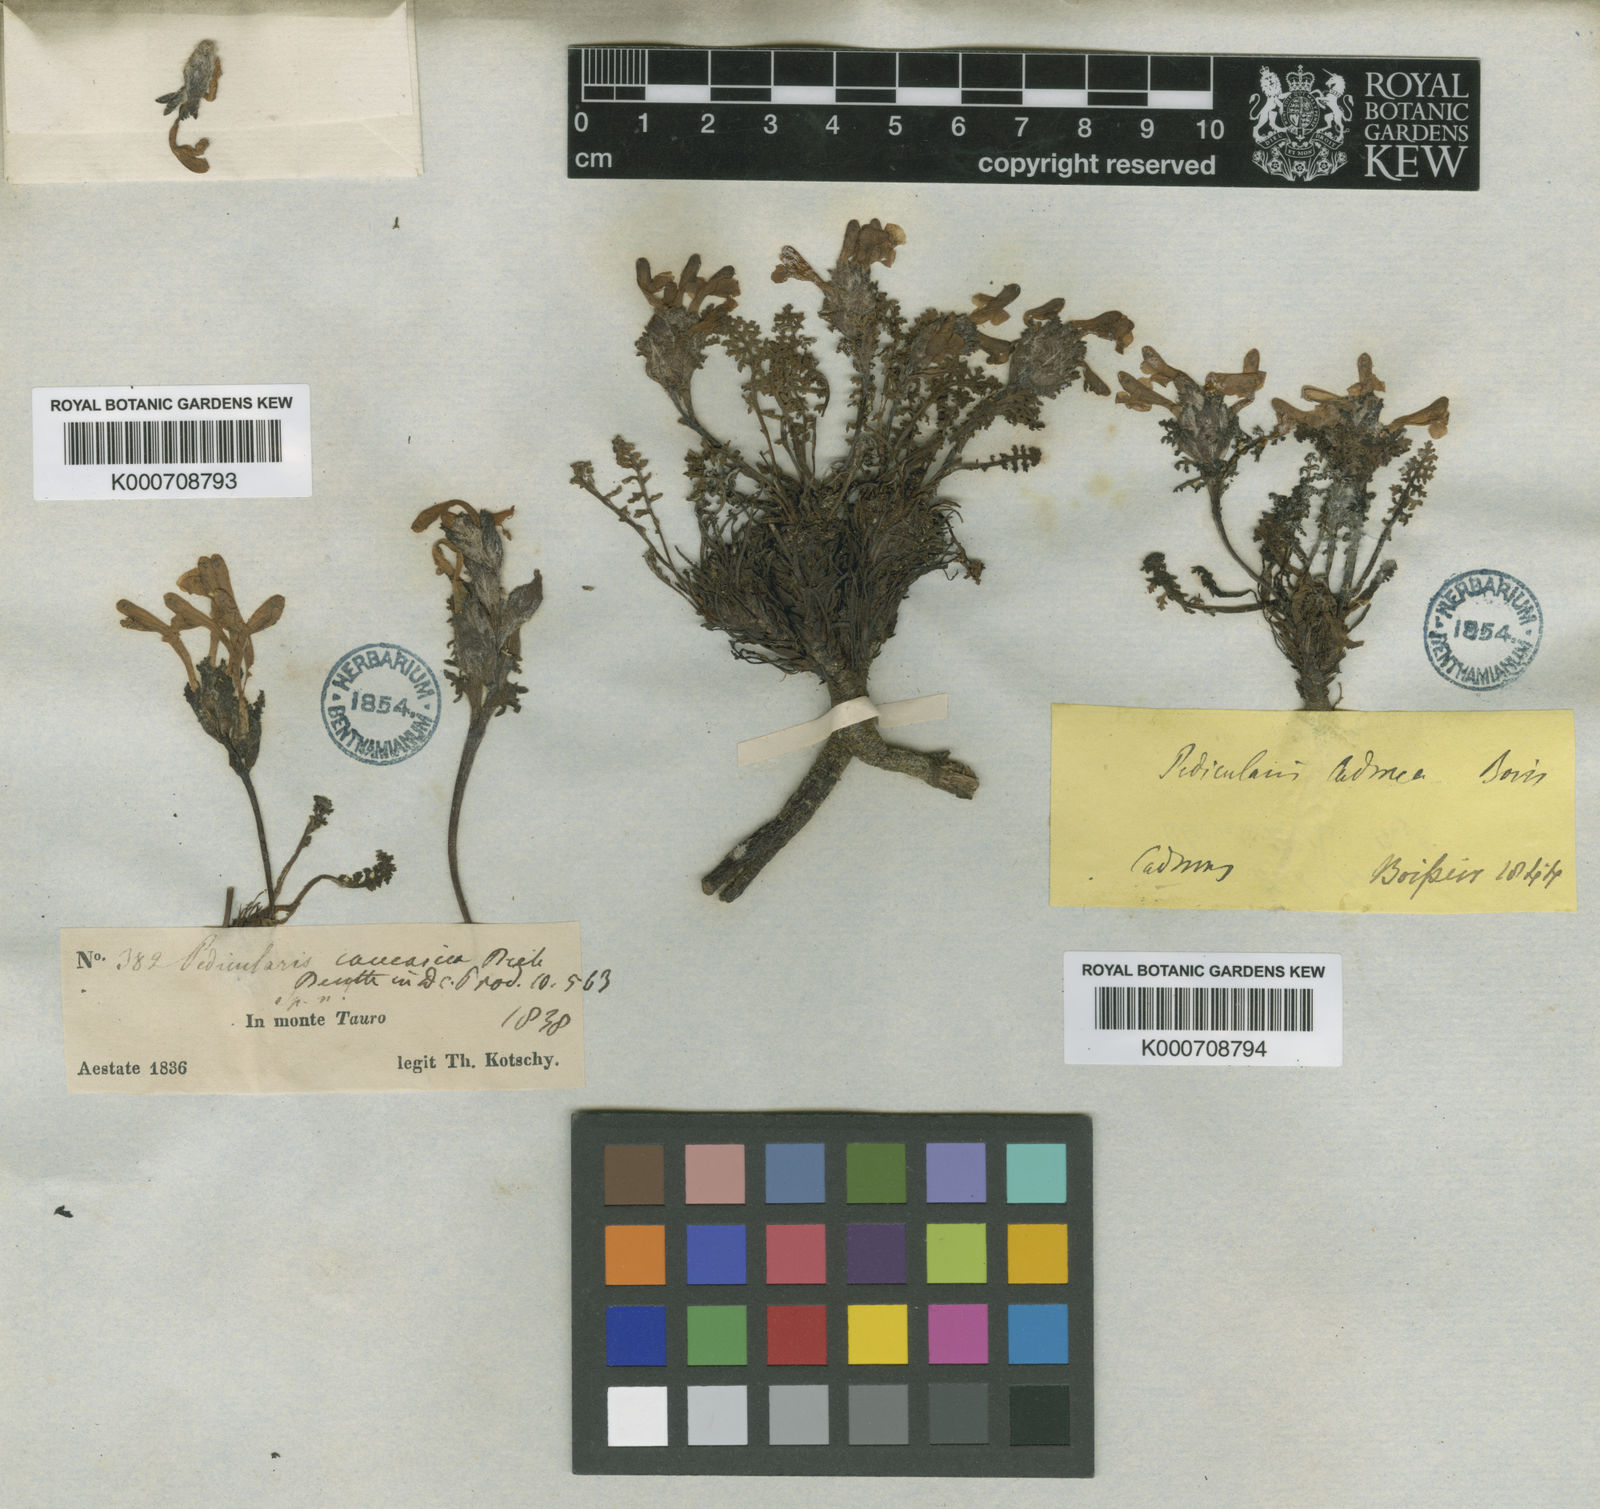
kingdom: Plantae
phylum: Tracheophyta
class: Magnoliopsida
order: Lamiales
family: Orobanchaceae
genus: Pedicularis
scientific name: Pedicularis cadmea
